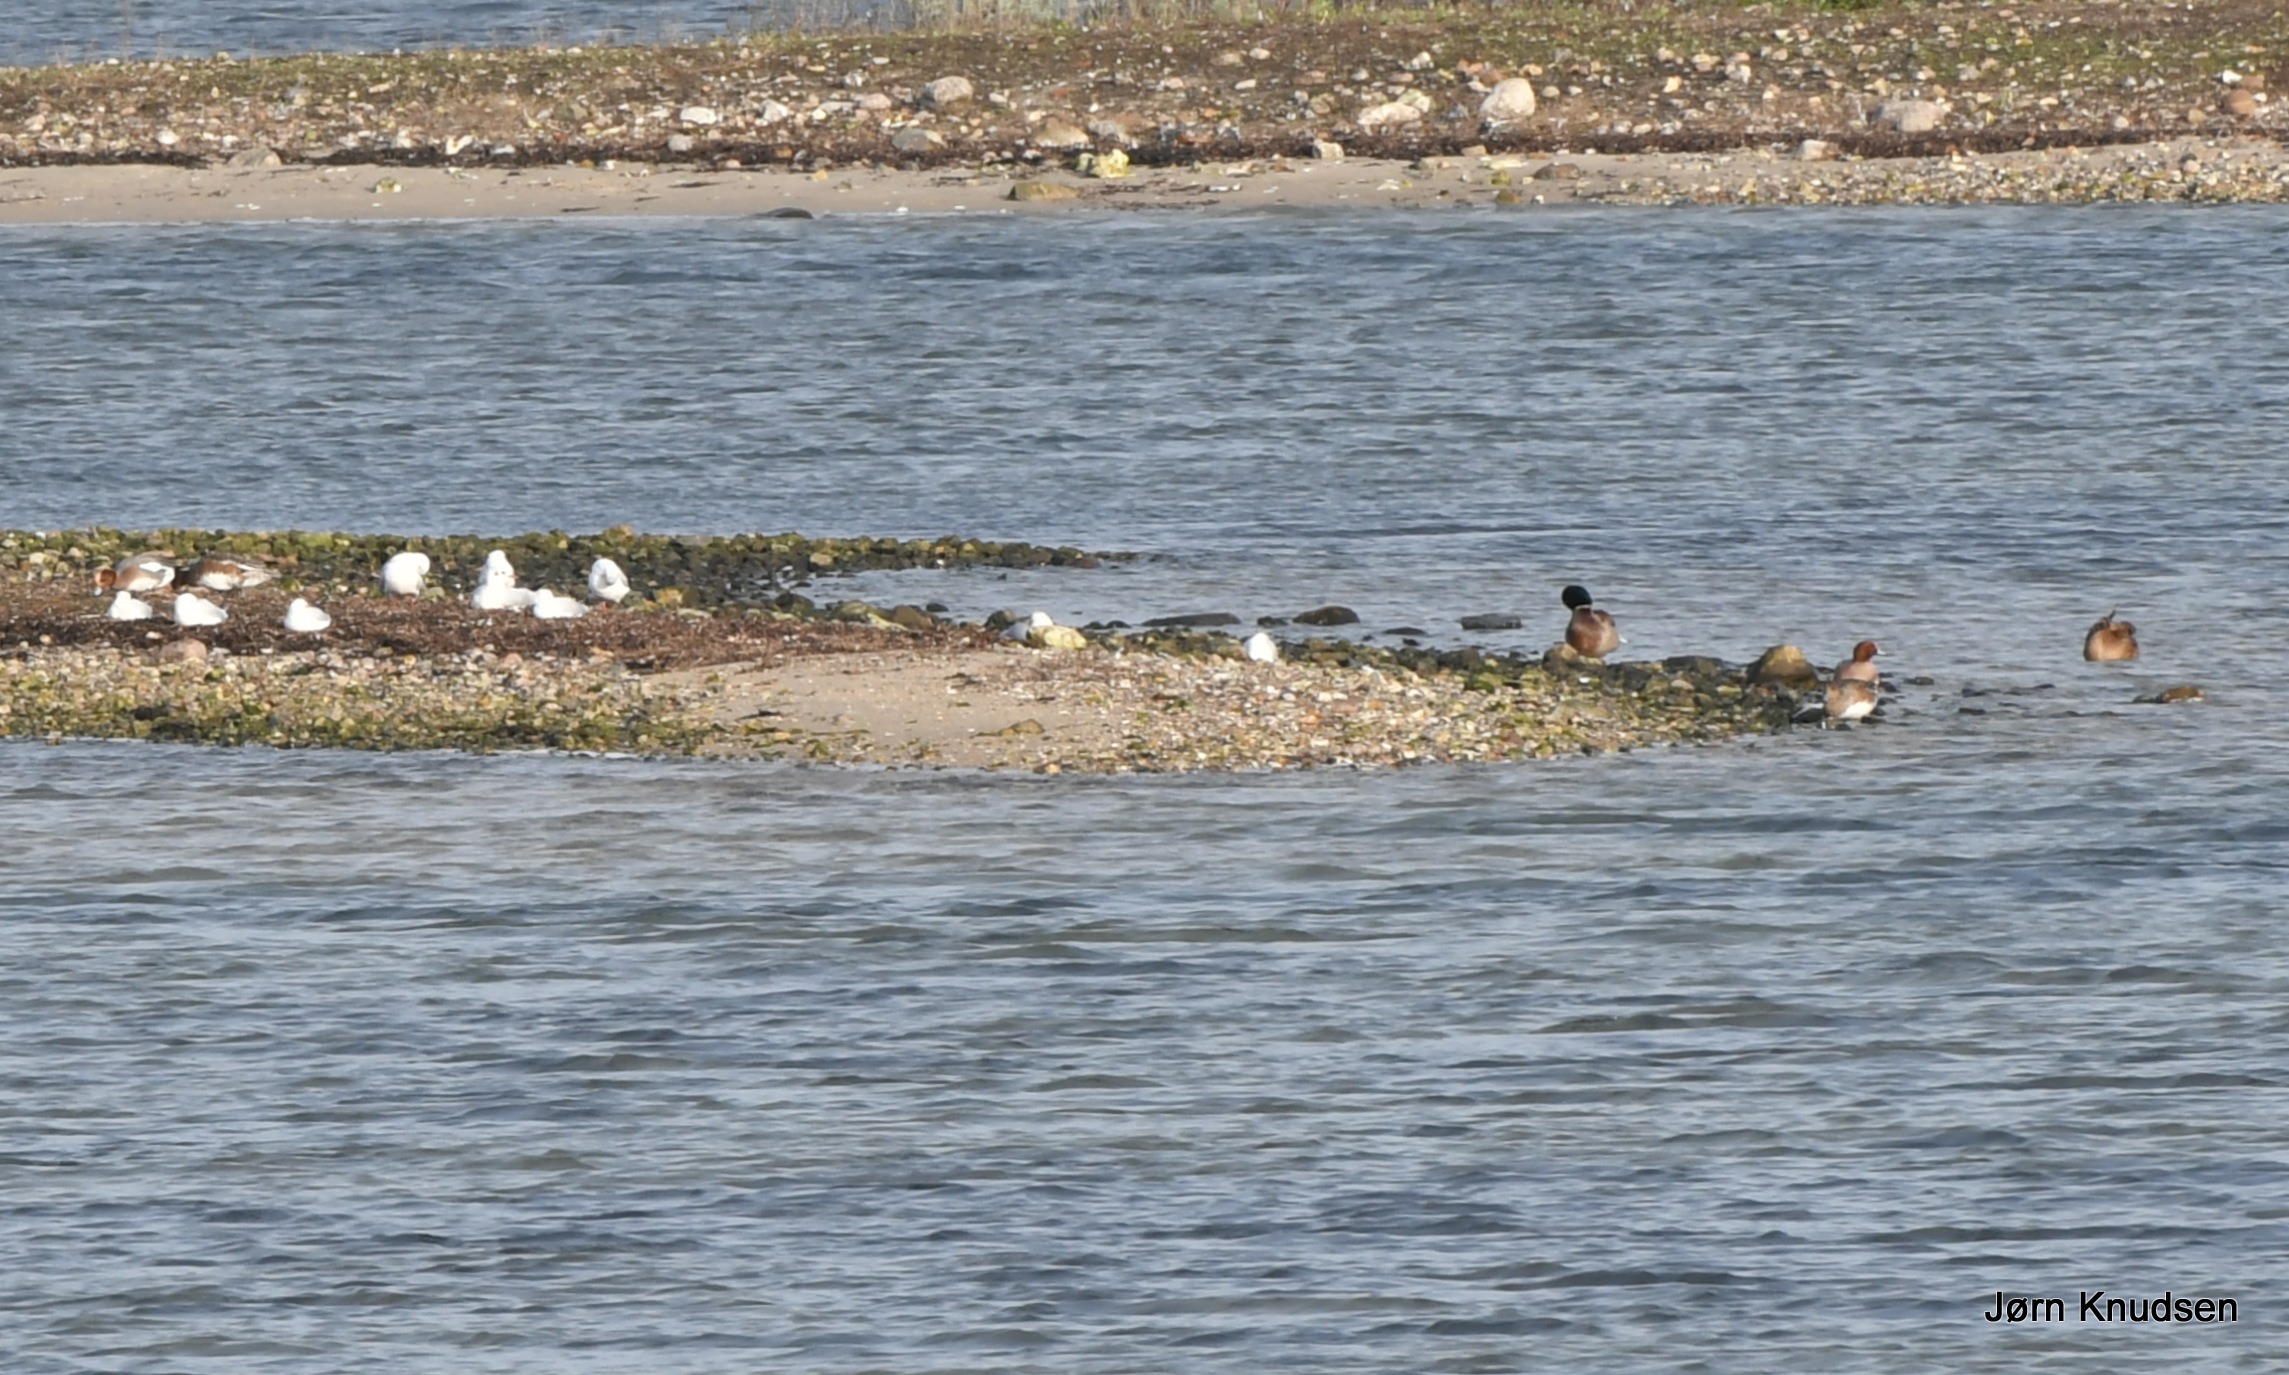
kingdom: Animalia
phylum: Chordata
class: Aves
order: Anseriformes
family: Anatidae
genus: Mareca
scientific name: Mareca penelope
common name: Pibeand
